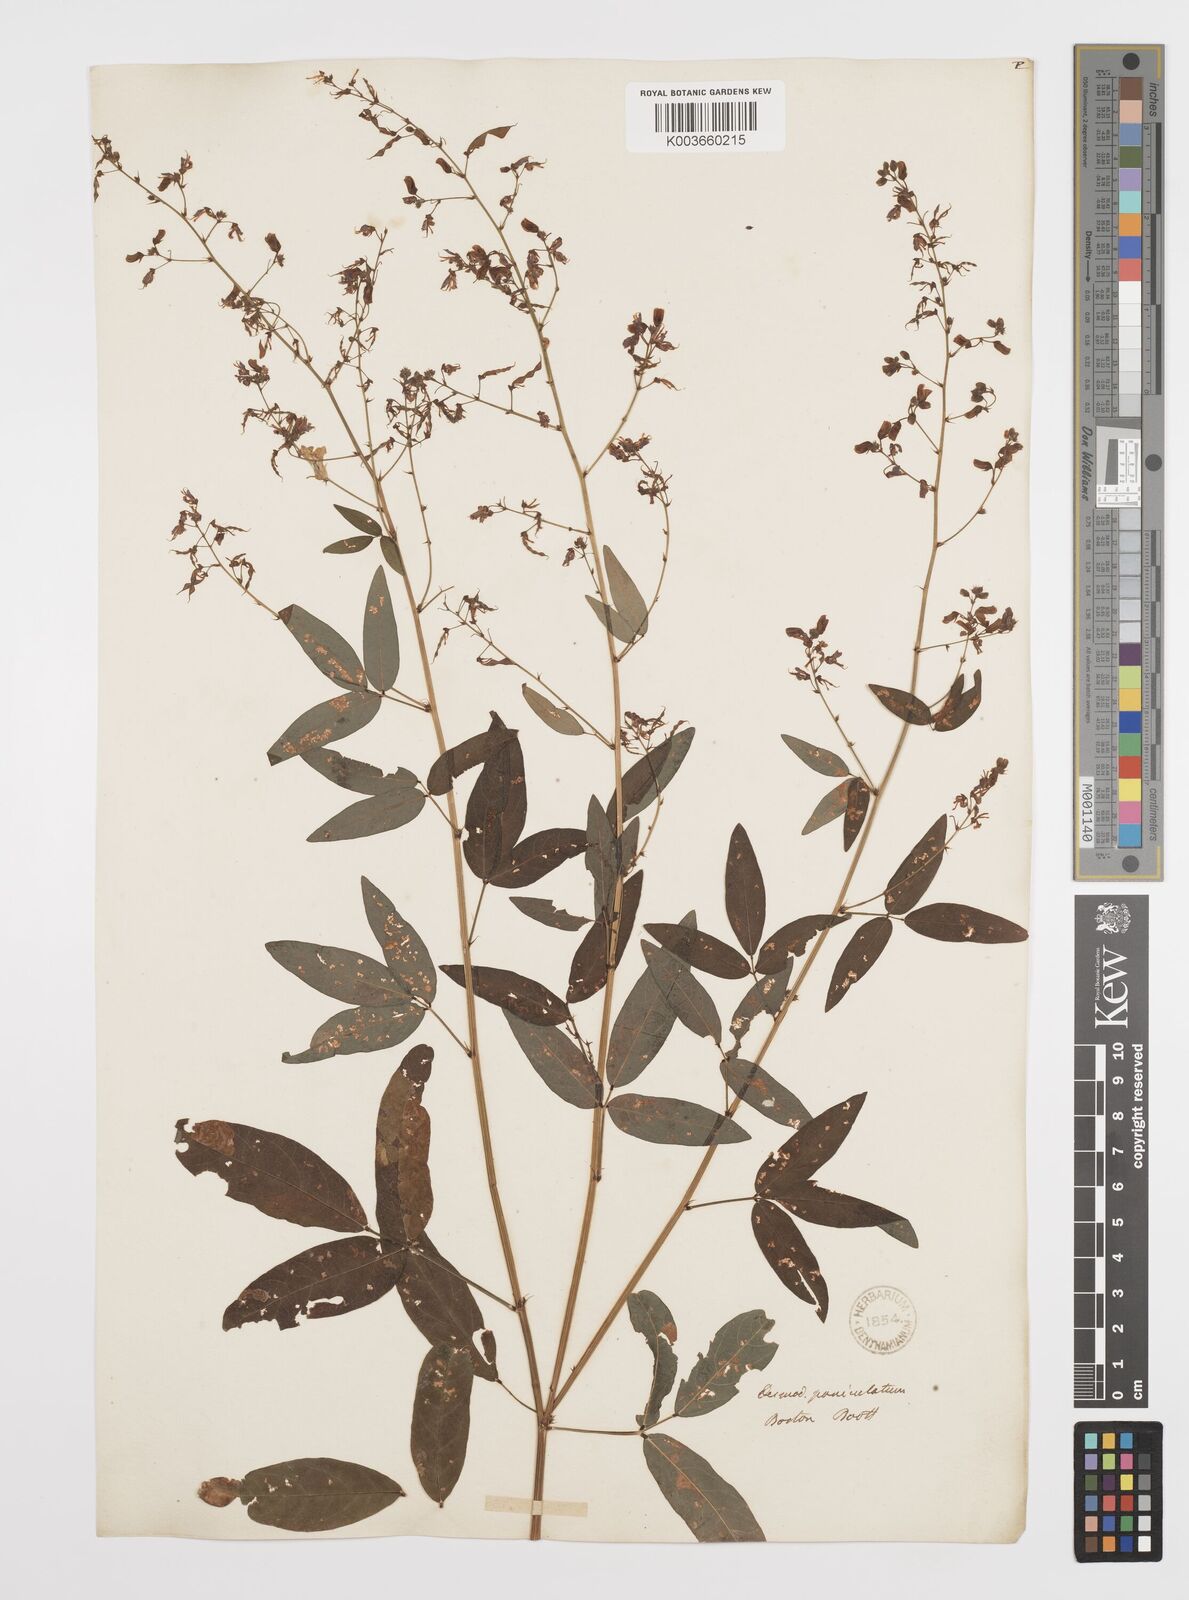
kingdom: Plantae
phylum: Tracheophyta
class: Magnoliopsida
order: Fabales
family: Fabaceae
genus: Desmodium
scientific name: Desmodium paniculatum
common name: Panicled tick-clover
